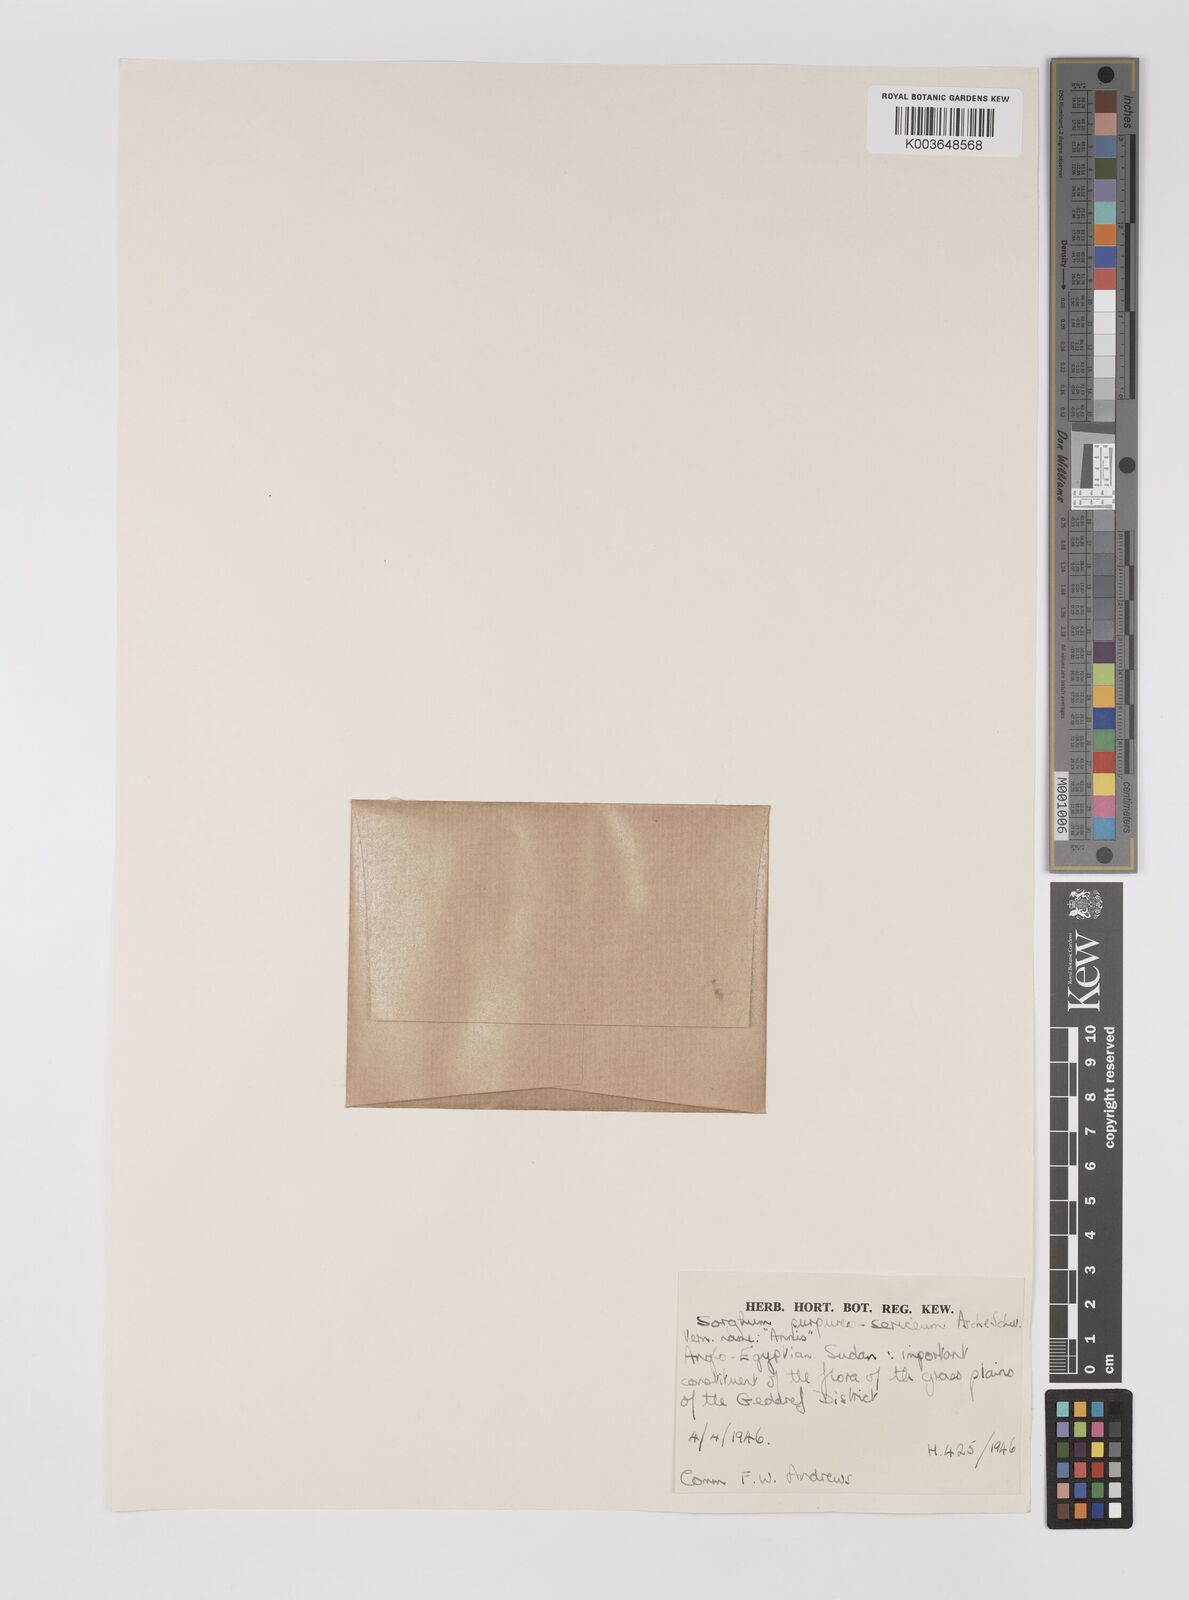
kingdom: Plantae
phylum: Tracheophyta
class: Liliopsida
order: Poales
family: Poaceae
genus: Sarga
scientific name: Sarga purpureosericea
